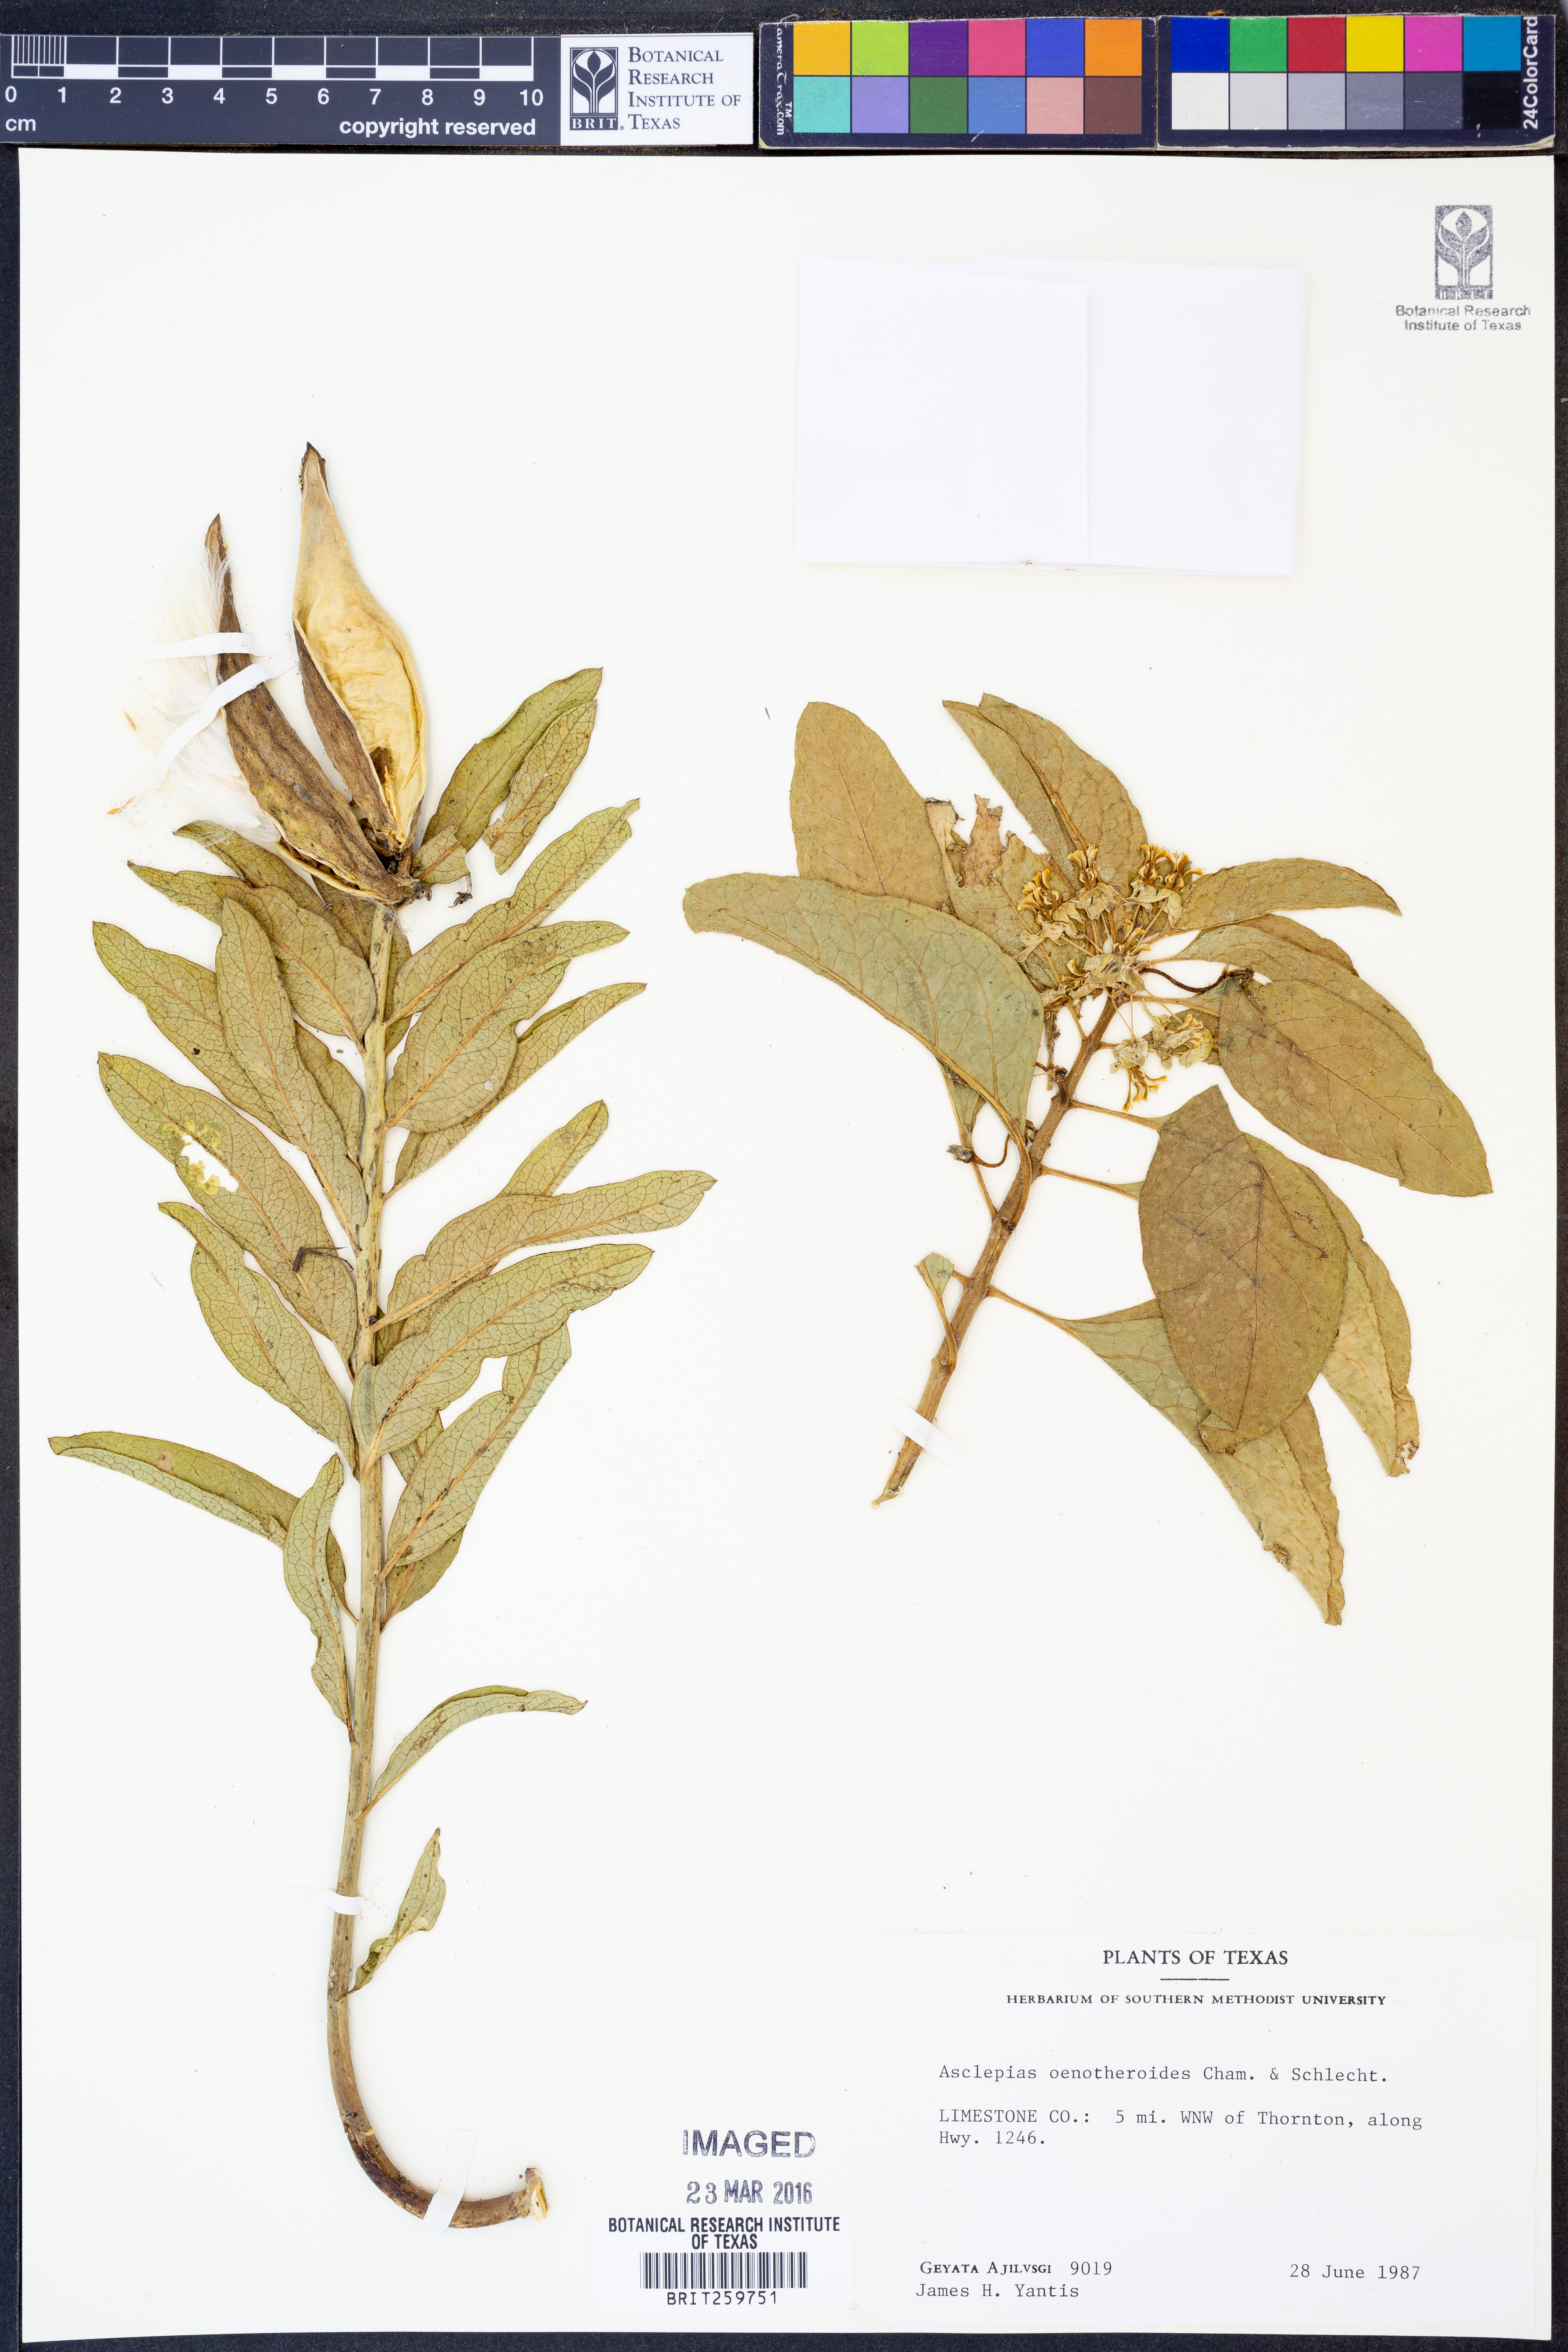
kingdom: Plantae
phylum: Tracheophyta
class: Magnoliopsida
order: Gentianales
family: Apocynaceae
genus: Asclepias
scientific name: Asclepias oenotheroides
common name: Zizotes milkweed
